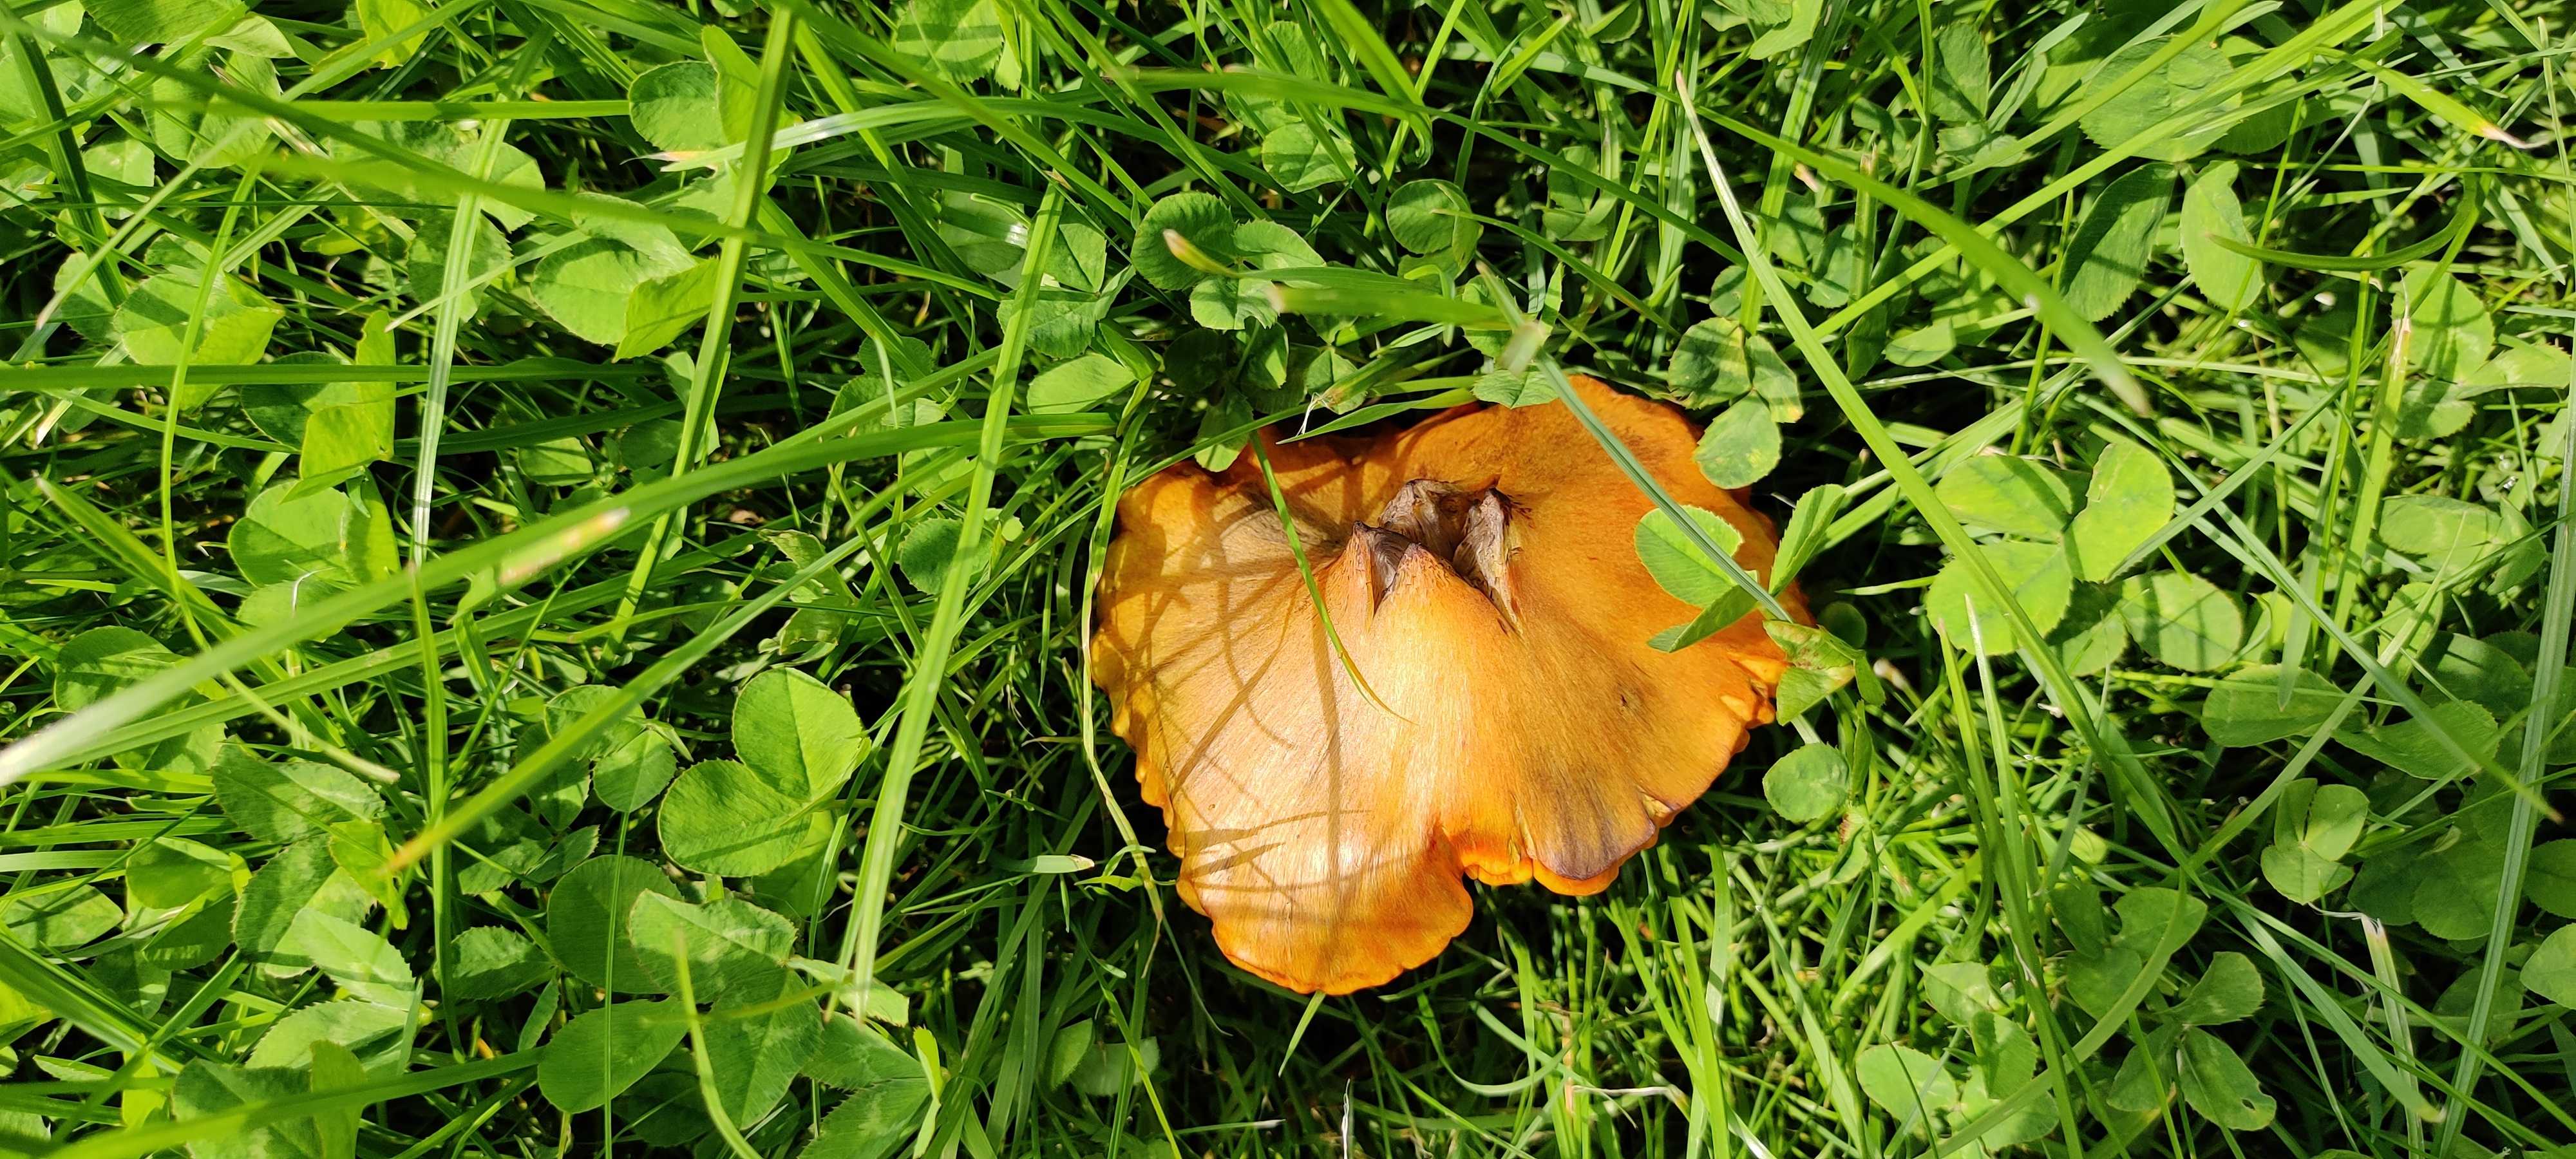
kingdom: Fungi
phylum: Basidiomycota
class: Agaricomycetes
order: Agaricales
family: Hygrophoraceae
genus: Hygrocybe
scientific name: Hygrocybe conica
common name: kegle-vokshat
